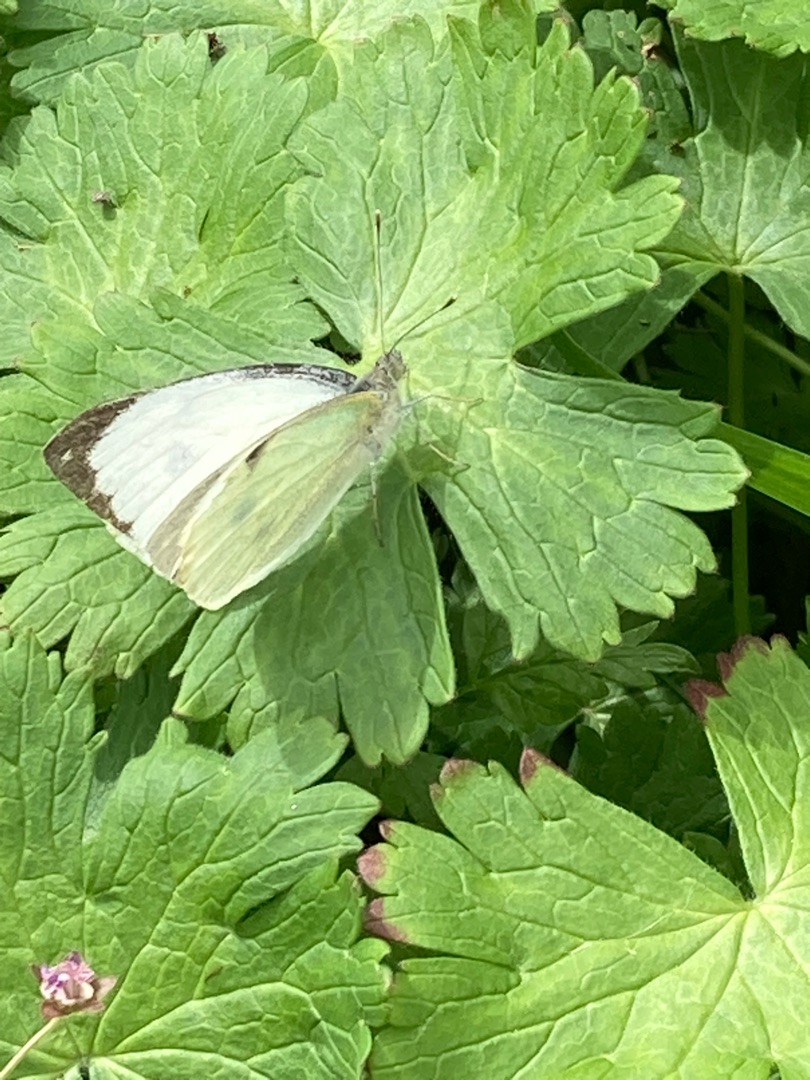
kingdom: Animalia
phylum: Arthropoda
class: Insecta
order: Lepidoptera
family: Pieridae
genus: Pieris
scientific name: Pieris brassicae
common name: Stor kålsommerfugl
